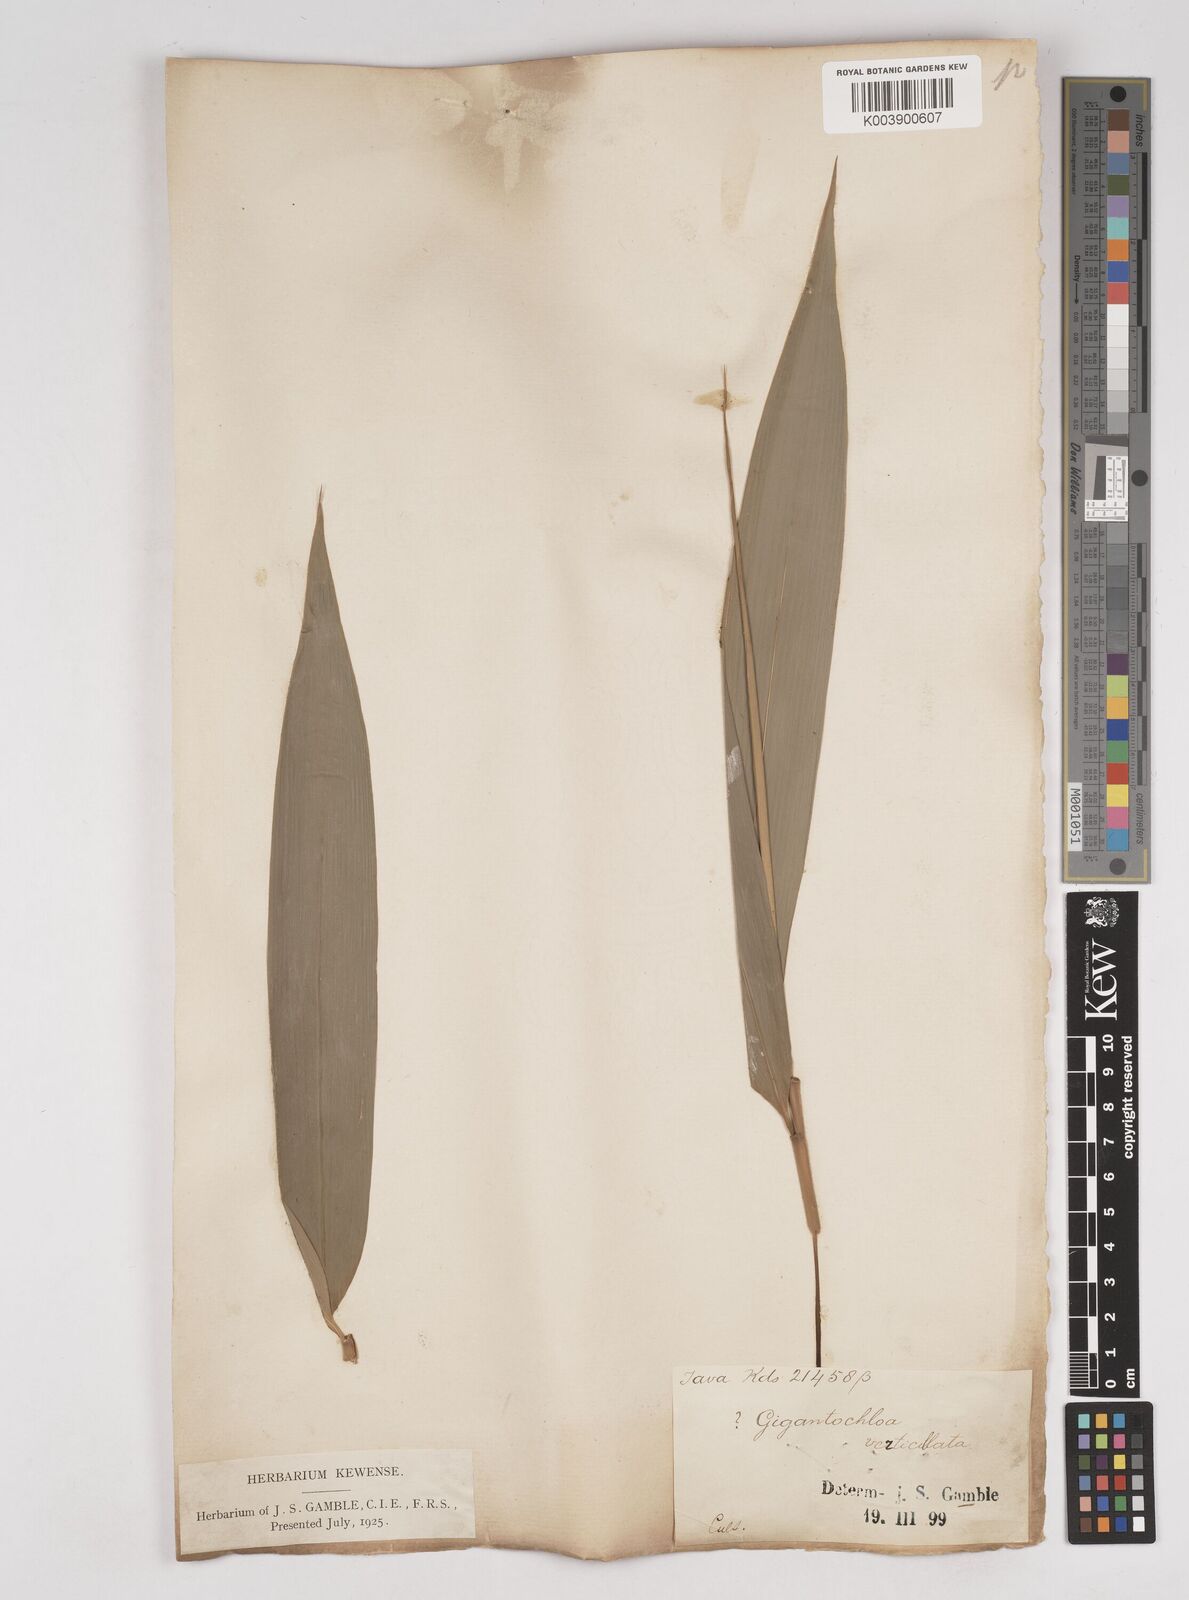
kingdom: Plantae
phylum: Tracheophyta
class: Liliopsida
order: Poales
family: Poaceae
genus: Gigantochloa
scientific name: Gigantochloa
